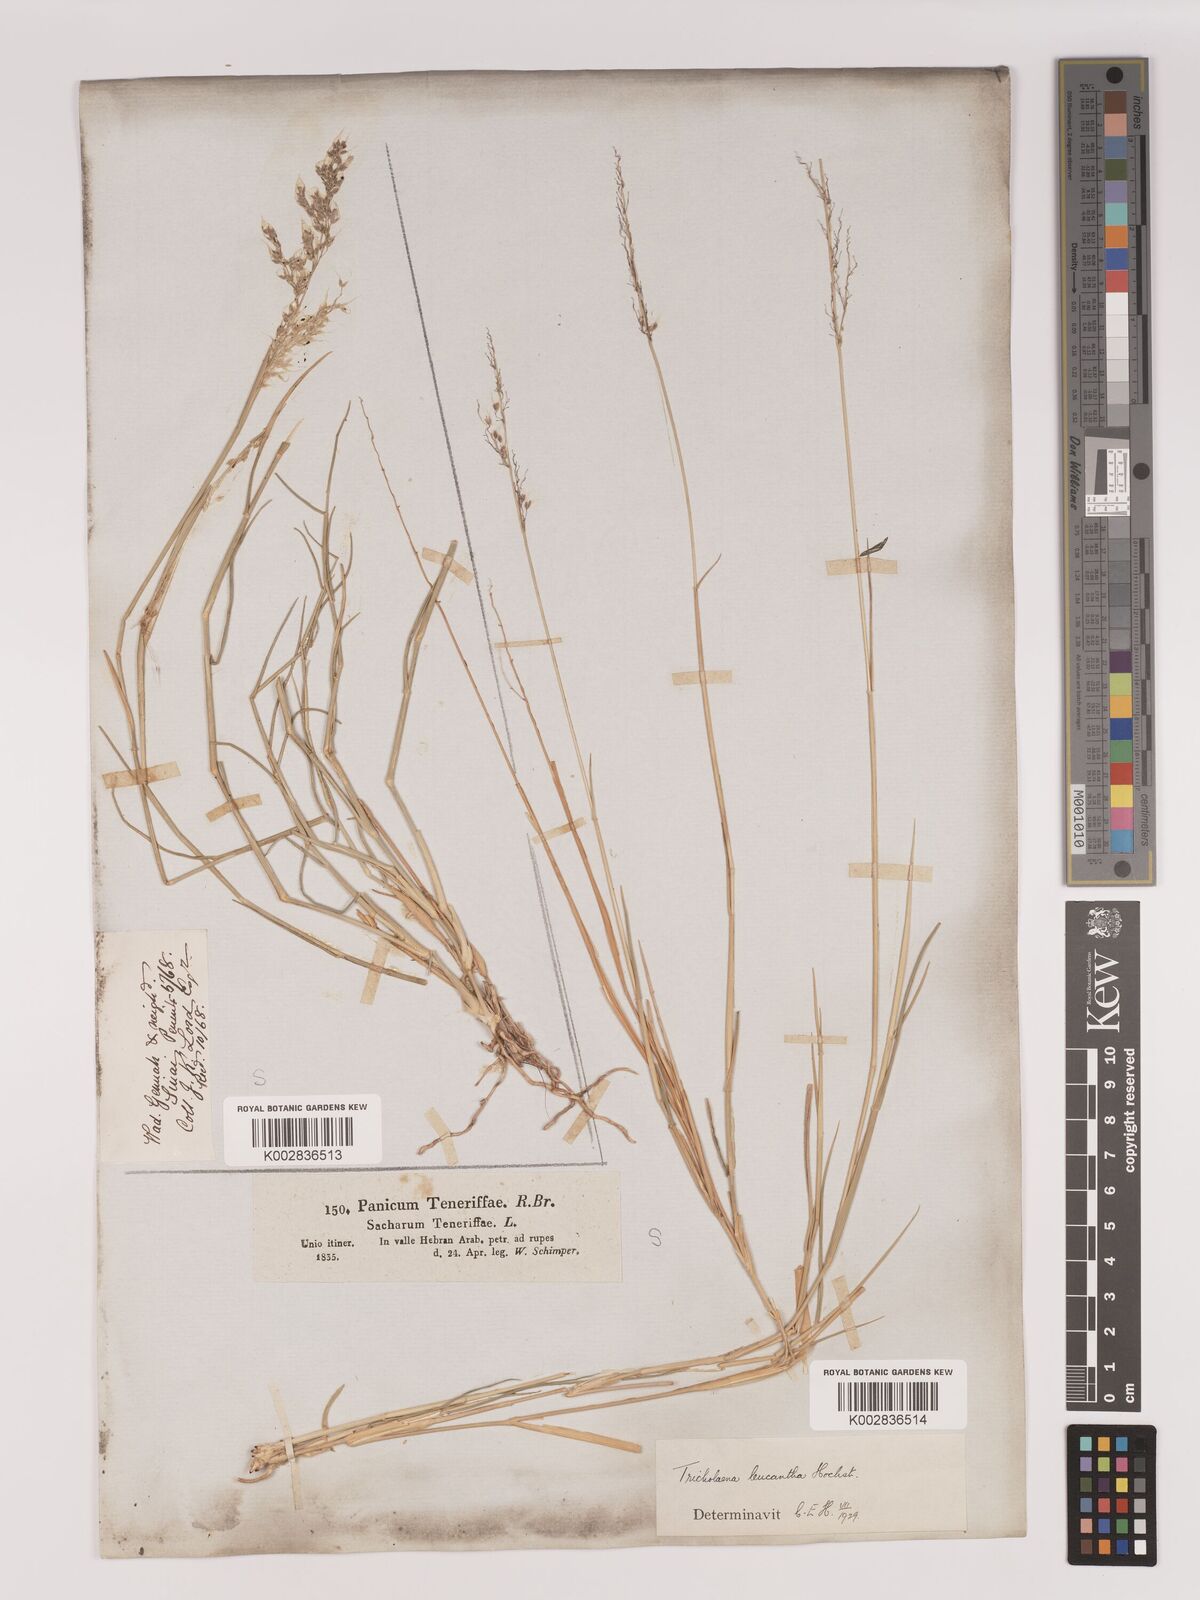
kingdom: Plantae
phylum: Tracheophyta
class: Liliopsida
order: Poales
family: Poaceae
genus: Tricholaena
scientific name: Tricholaena teneriffae
